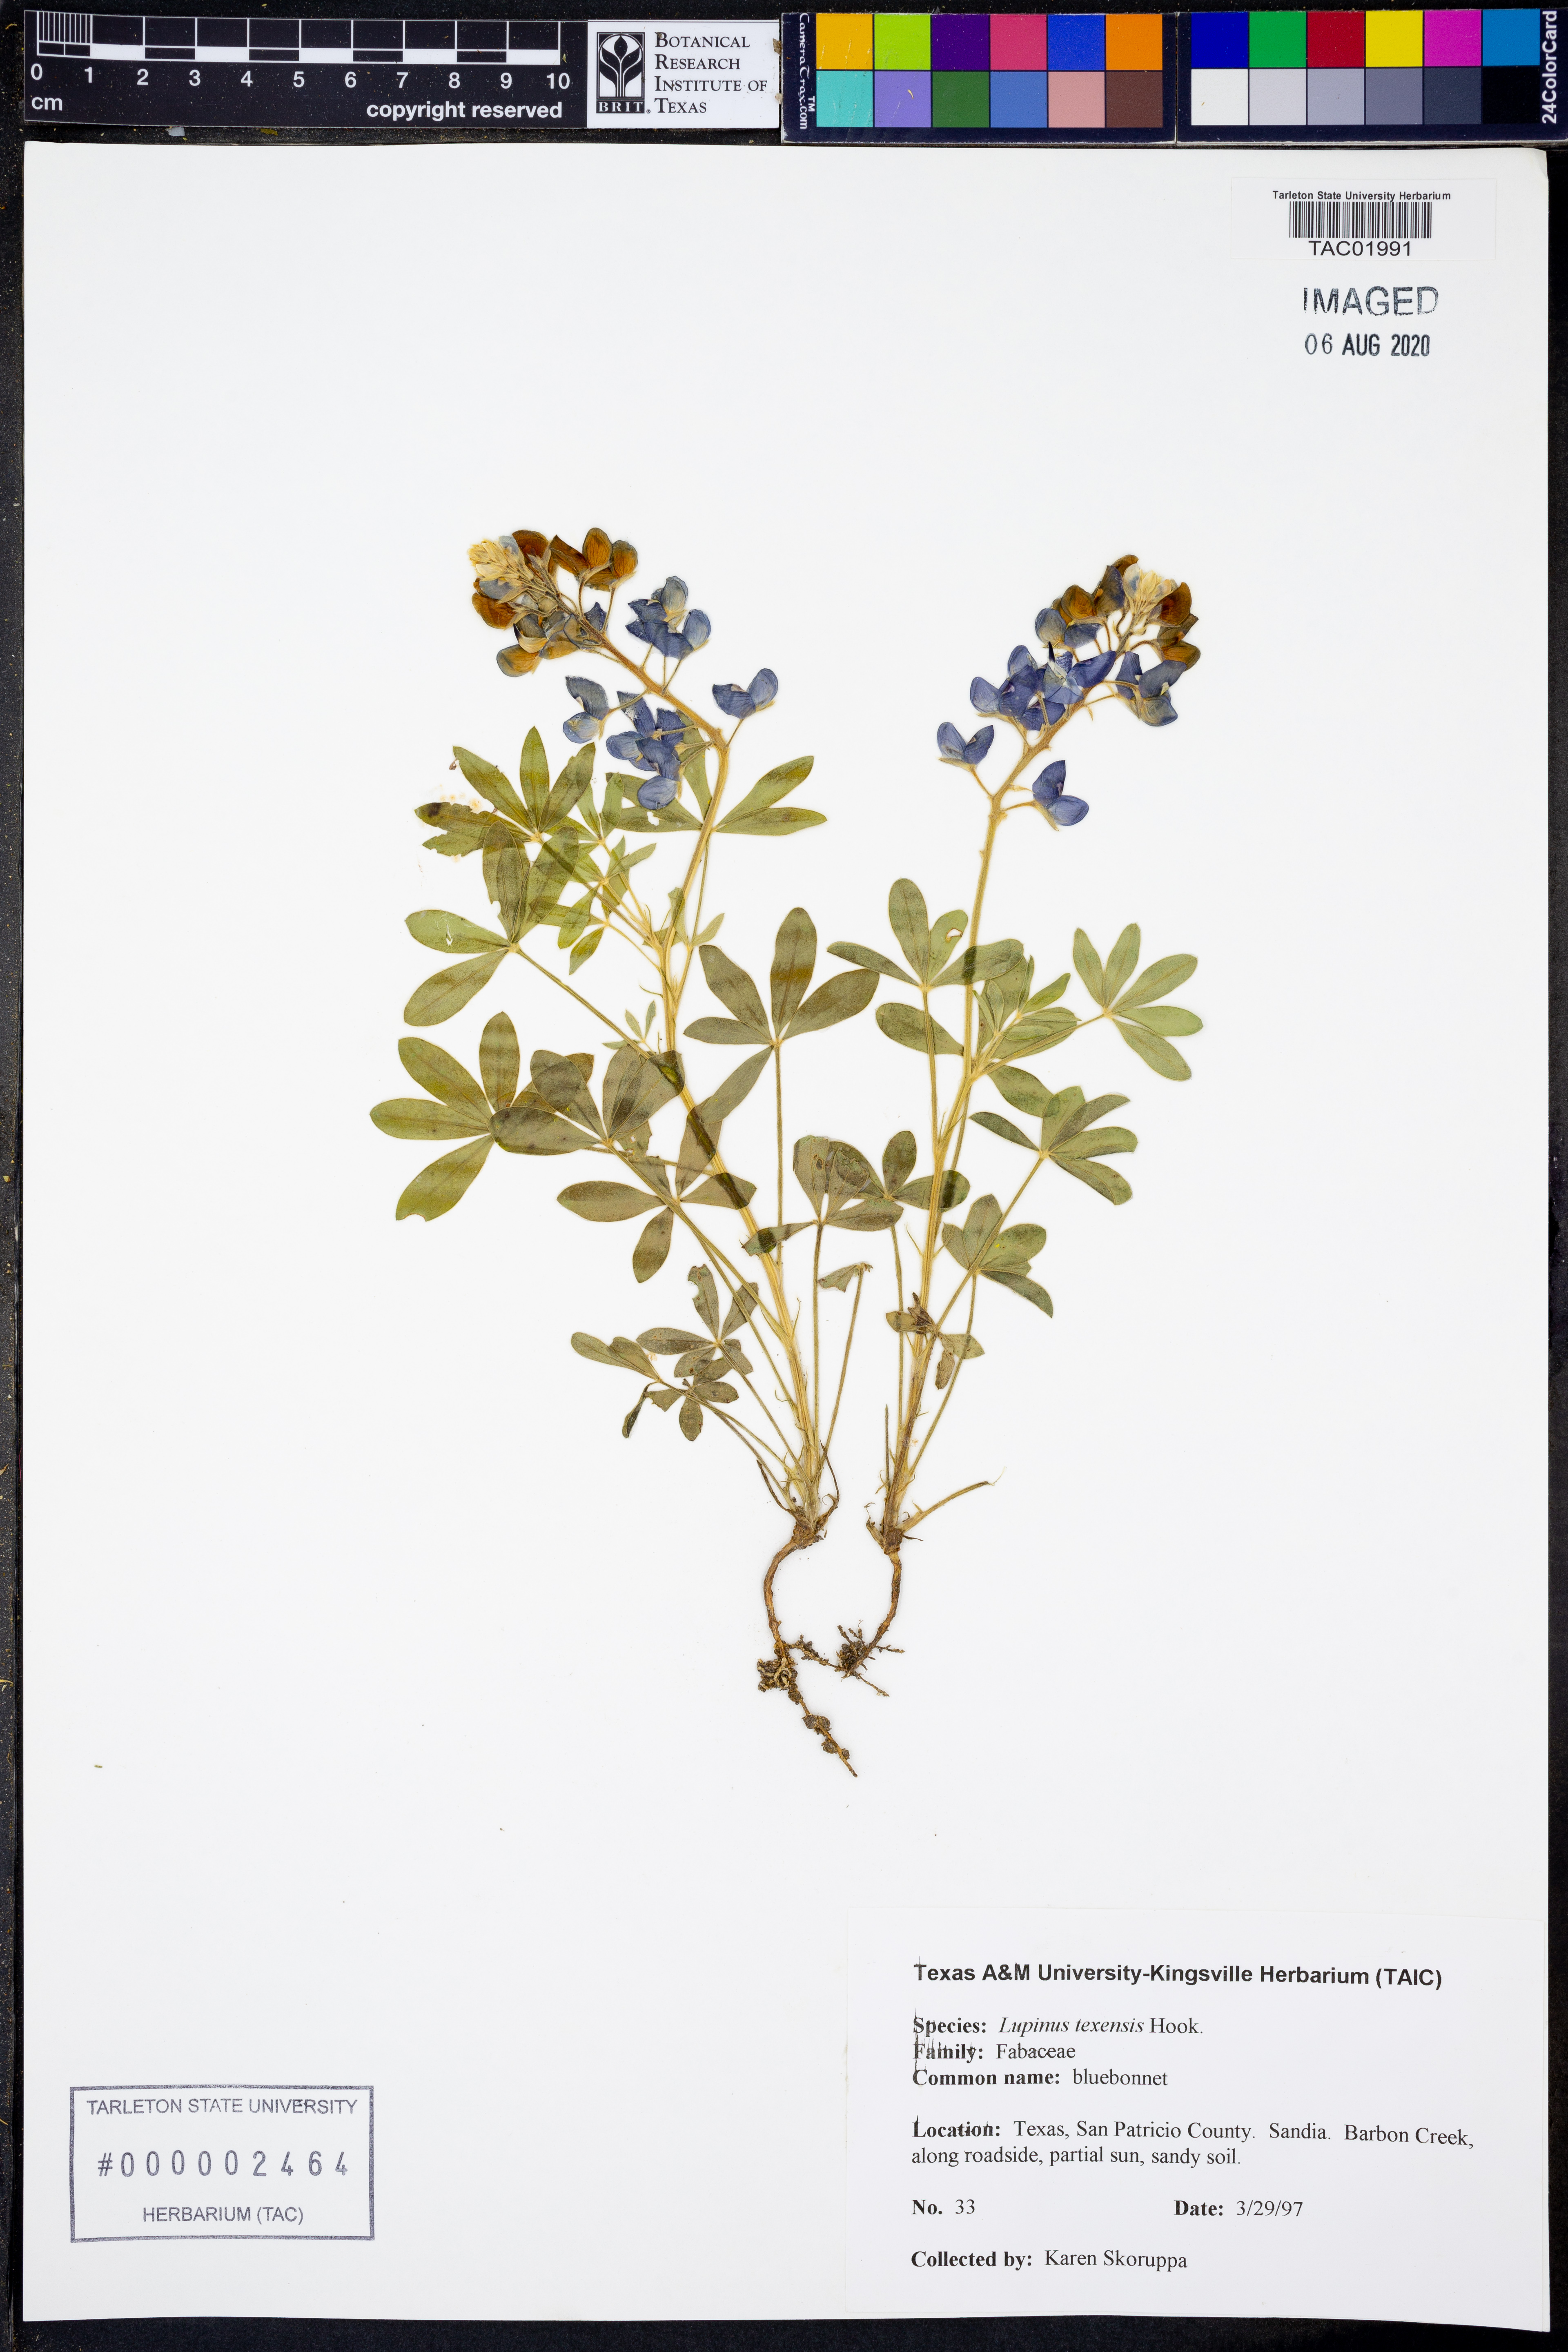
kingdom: Plantae
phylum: Tracheophyta
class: Magnoliopsida
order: Fabales
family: Fabaceae
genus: Lupinus
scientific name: Lupinus texensis
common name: Texas bluebonnet
